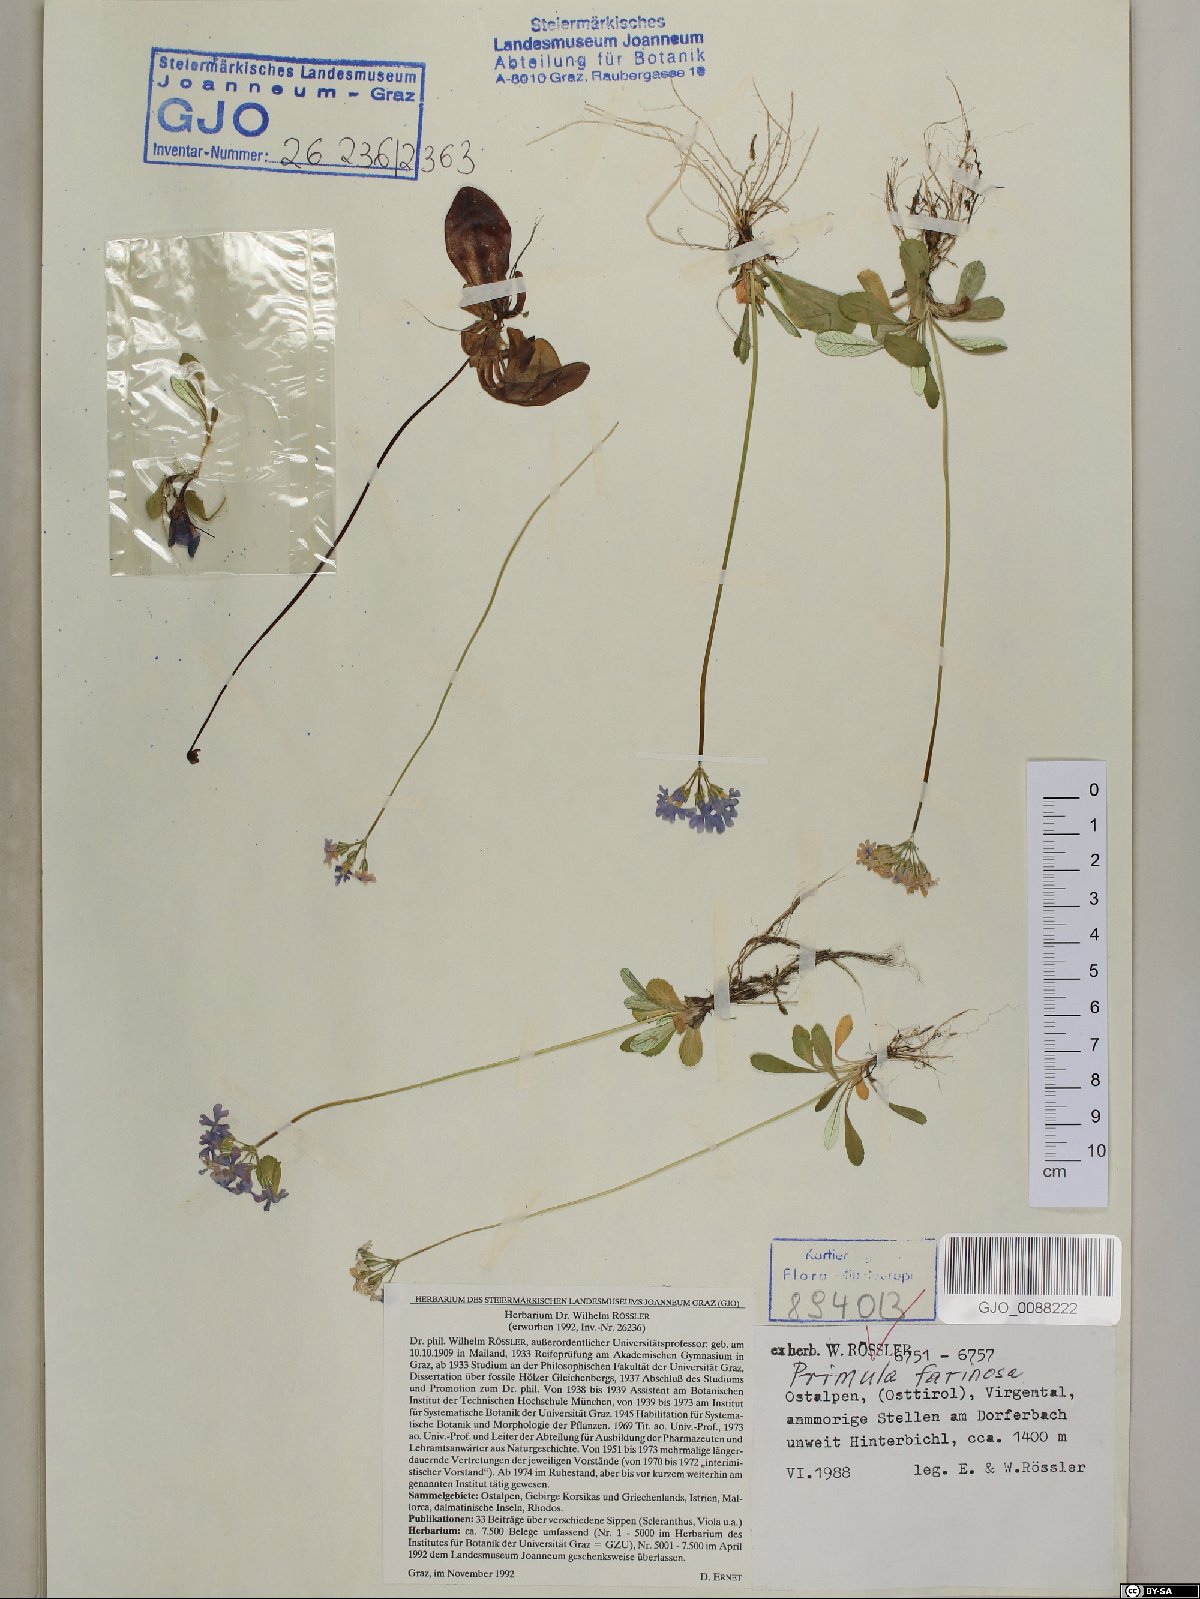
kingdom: Plantae
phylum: Tracheophyta
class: Magnoliopsida
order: Ericales
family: Primulaceae
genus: Primula
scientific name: Primula farinosa
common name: Bird's-eye primrose
